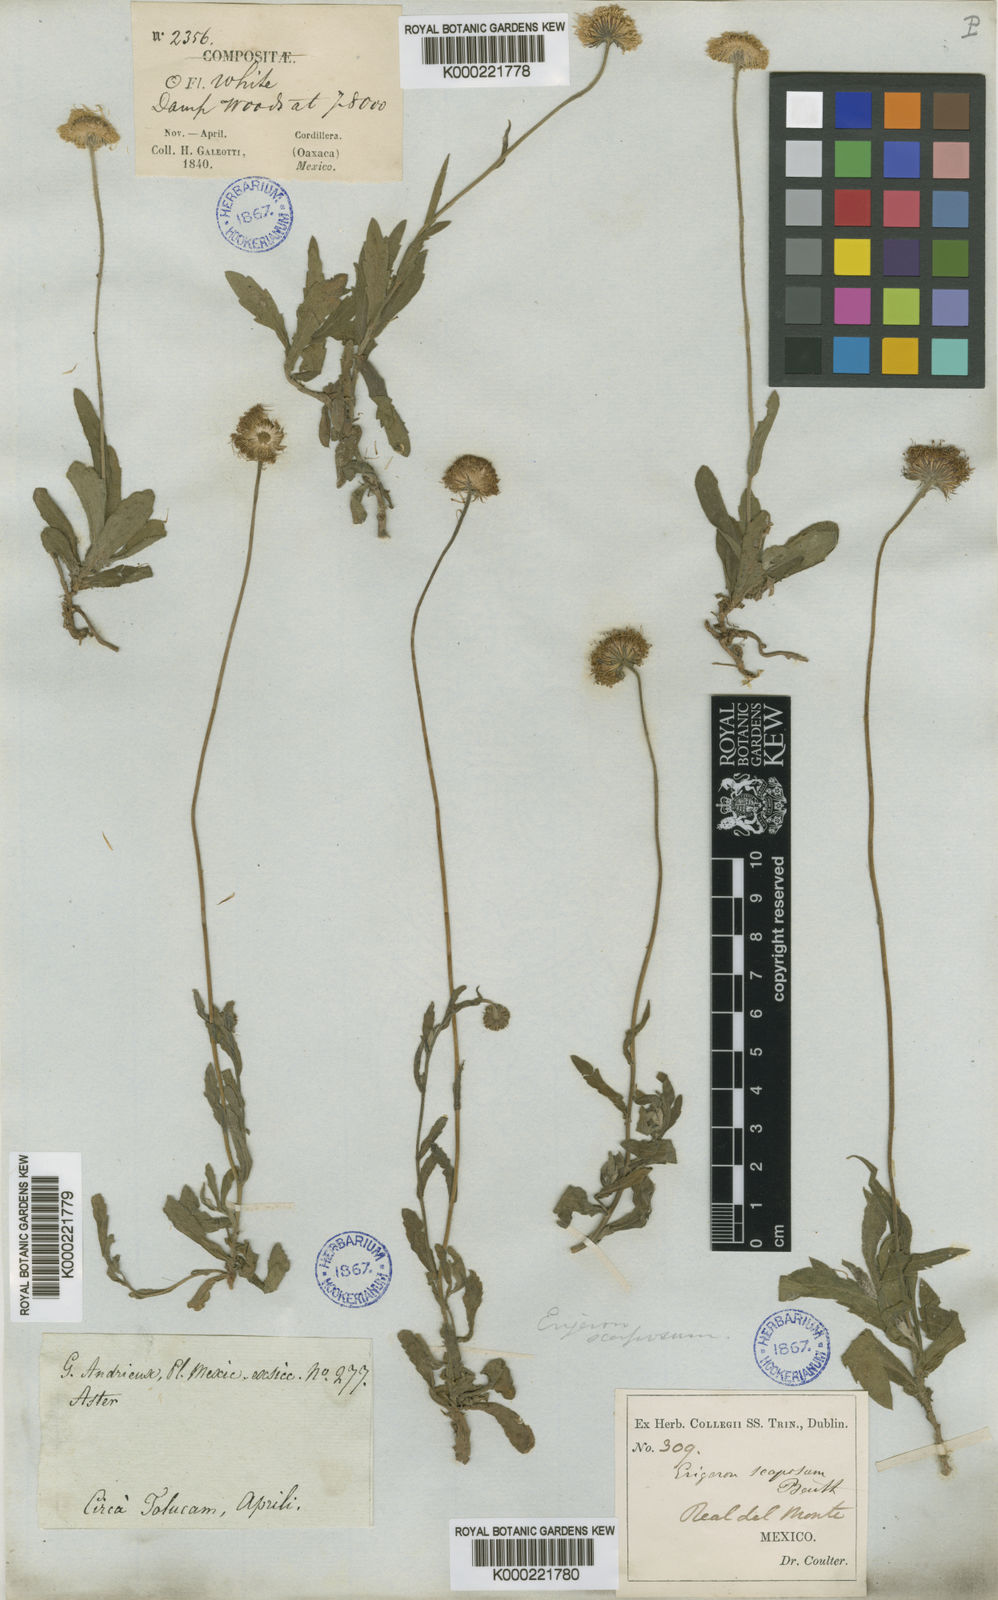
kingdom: Plantae
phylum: Tracheophyta
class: Magnoliopsida
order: Asterales
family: Asteraceae
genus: Erigeron
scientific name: Erigeron longipes
